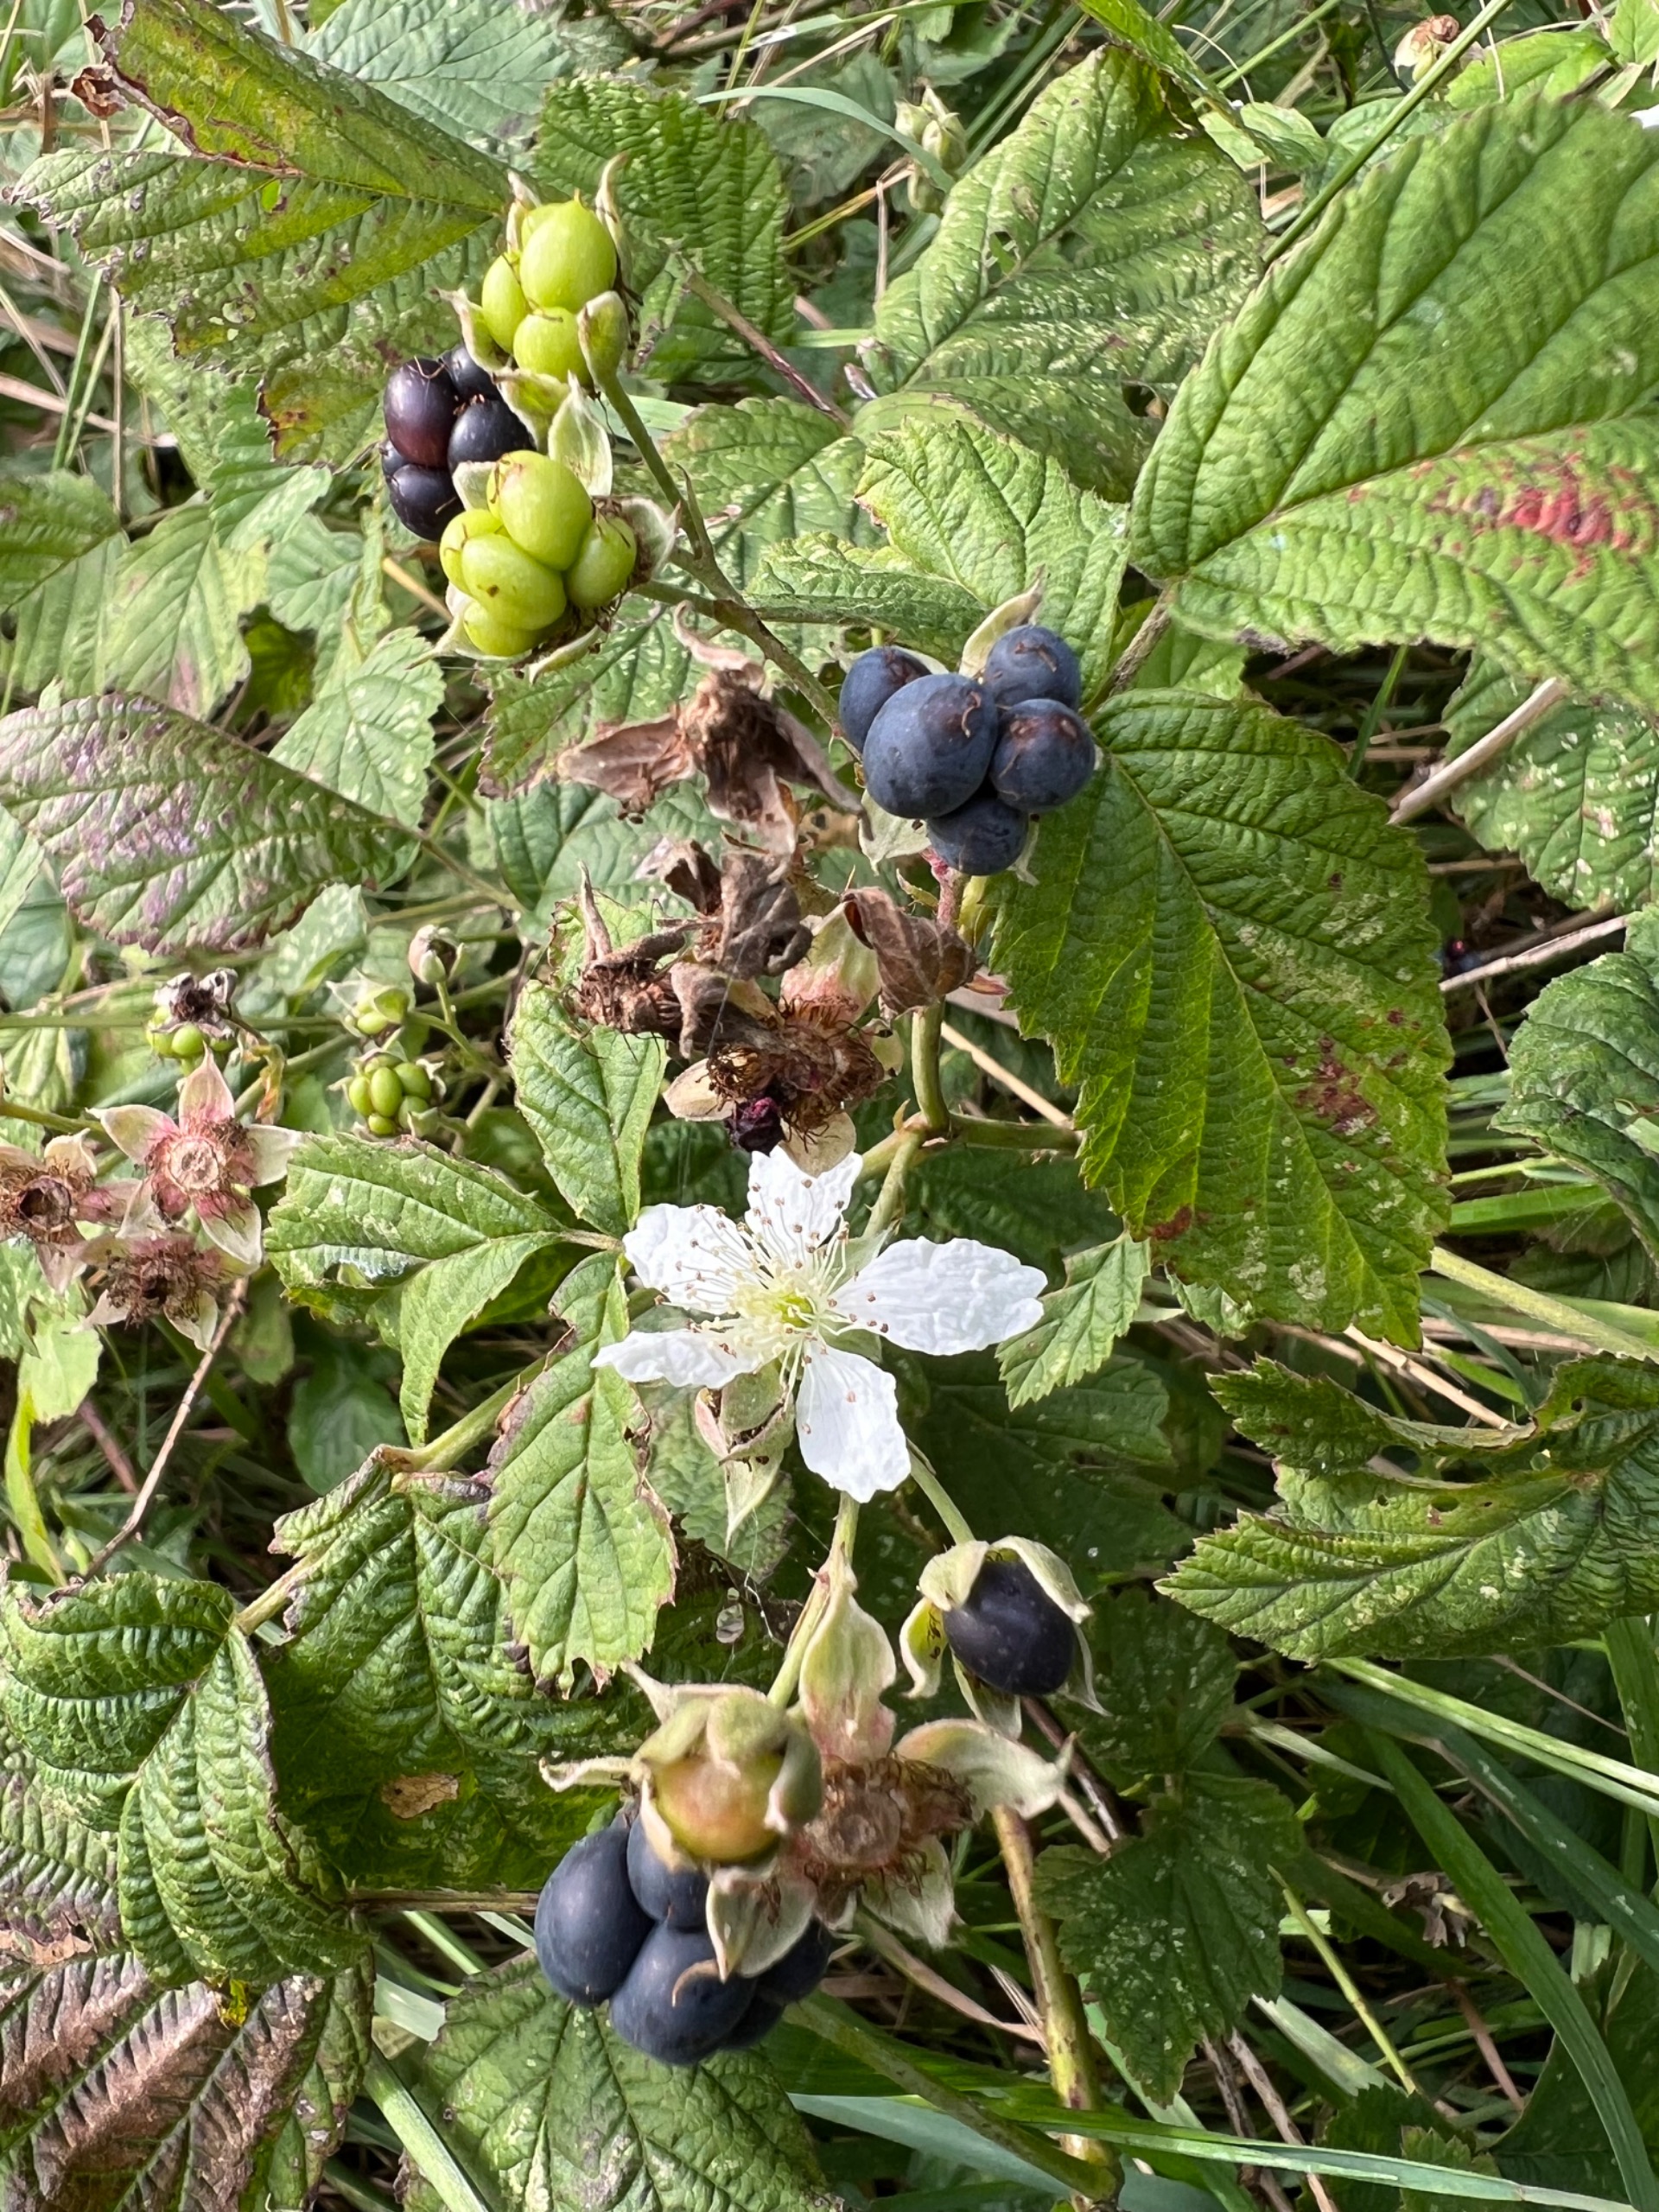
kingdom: Plantae
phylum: Tracheophyta
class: Magnoliopsida
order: Rosales
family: Rosaceae
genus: Rubus
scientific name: Rubus caesius
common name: Korbær
